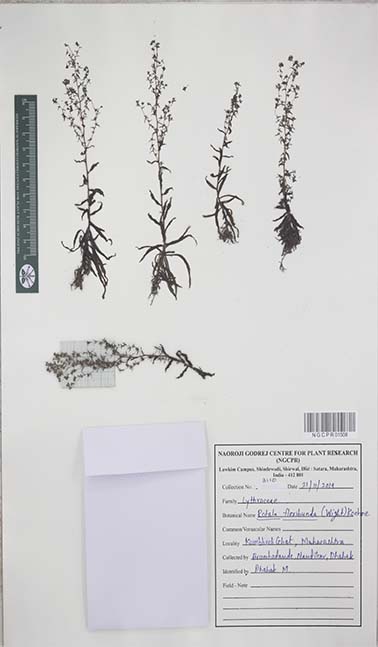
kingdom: Plantae
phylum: Tracheophyta
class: Magnoliopsida
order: Myrtales
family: Lythraceae
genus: Rotala
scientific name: Rotala floribunda
